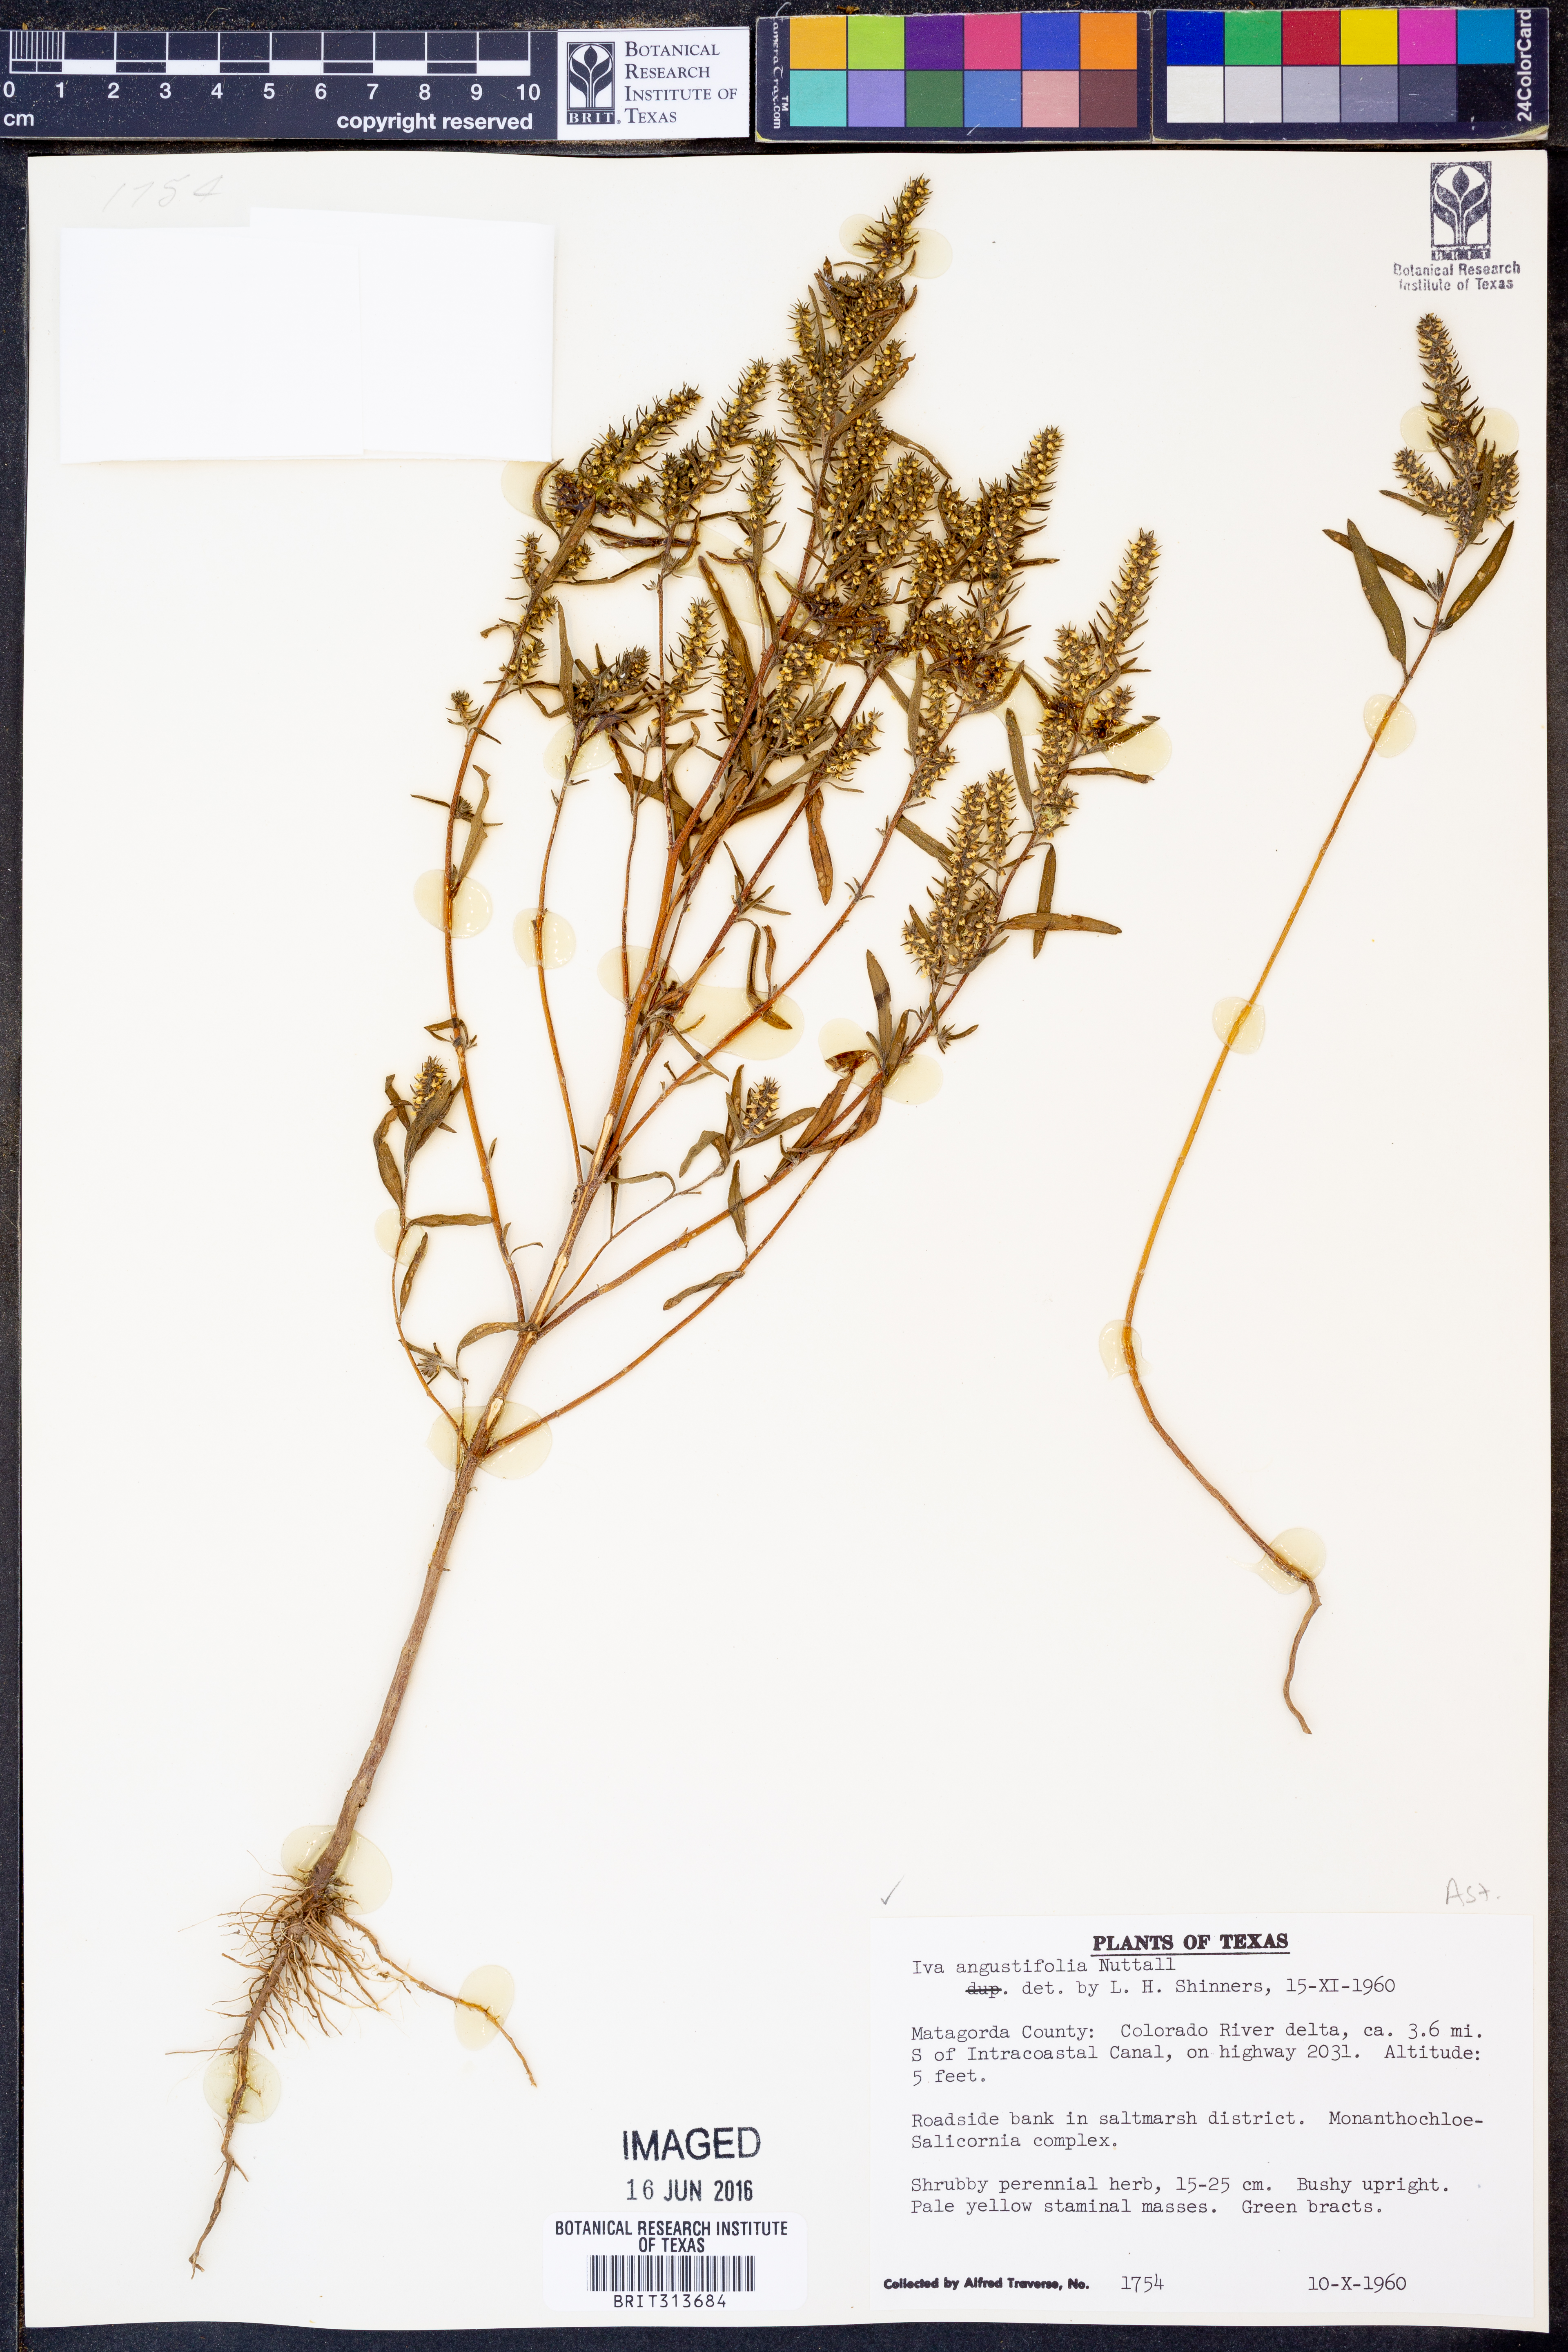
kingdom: Plantae
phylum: Tracheophyta
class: Magnoliopsida
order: Asterales
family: Asteraceae
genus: Iva
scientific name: Iva asperifolia
